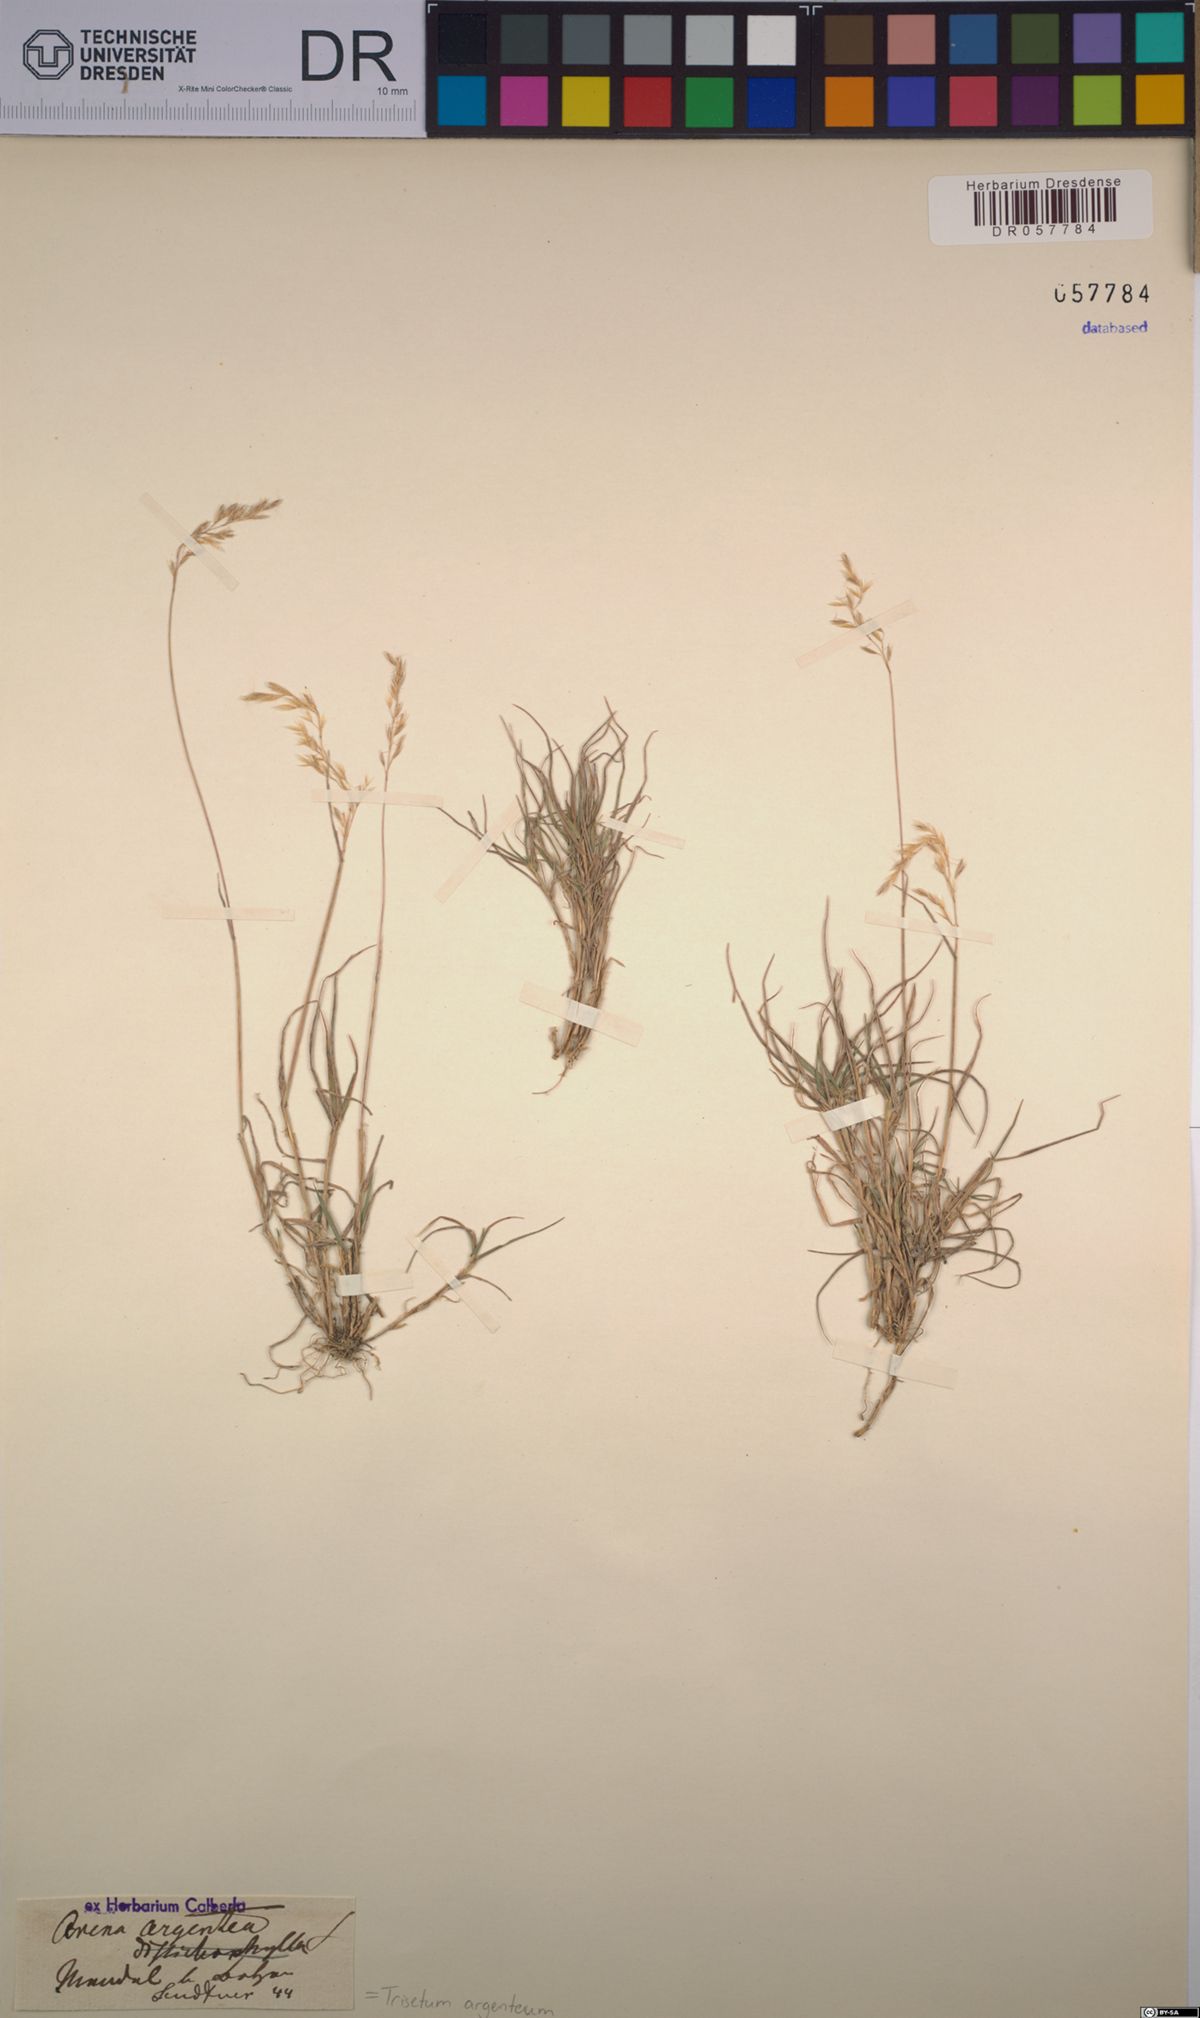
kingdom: Plantae
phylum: Tracheophyta
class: Liliopsida
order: Poales
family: Poaceae
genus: Trisetum
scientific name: Trisetum argenteum
